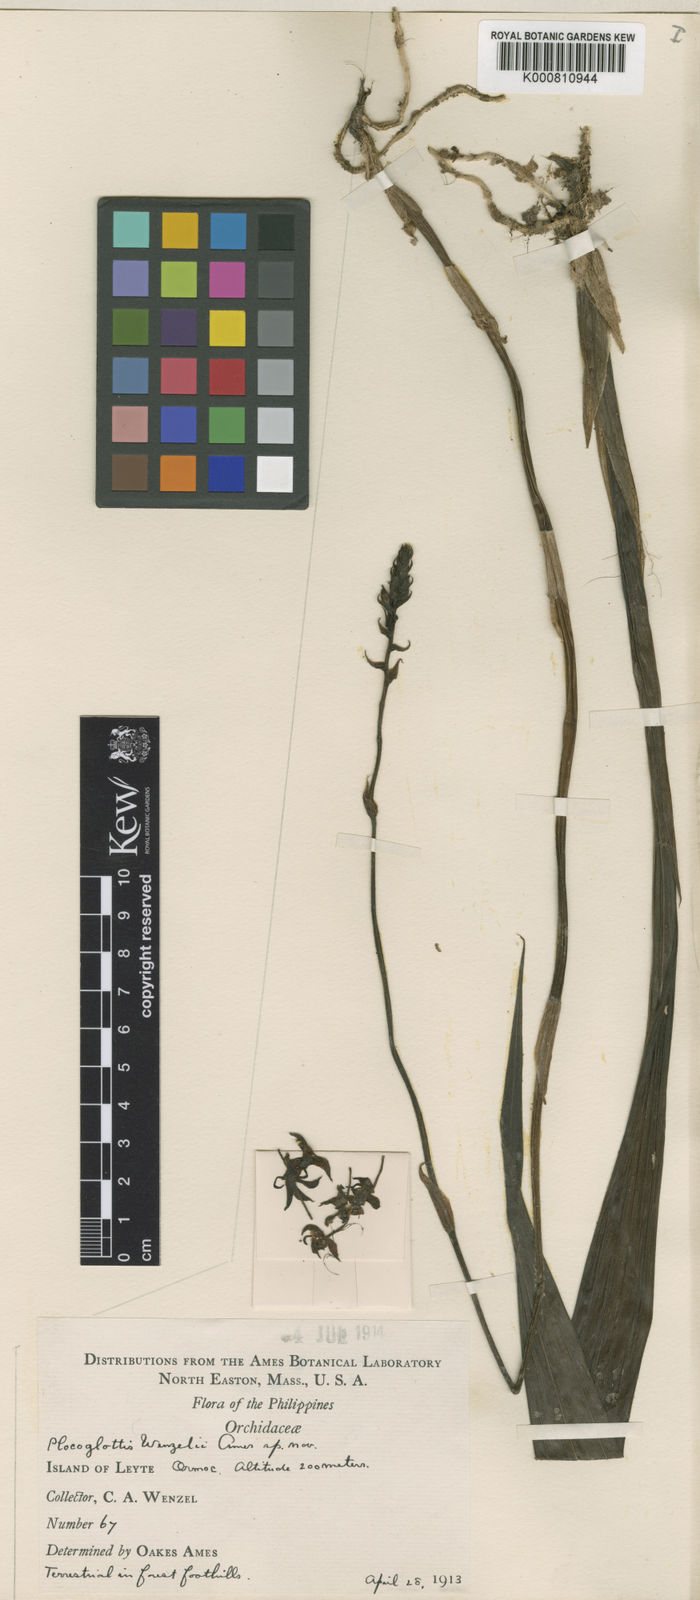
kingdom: Plantae
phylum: Tracheophyta
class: Liliopsida
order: Asparagales
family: Orchidaceae
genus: Plocoglottis
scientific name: Plocoglottis mindorensis
